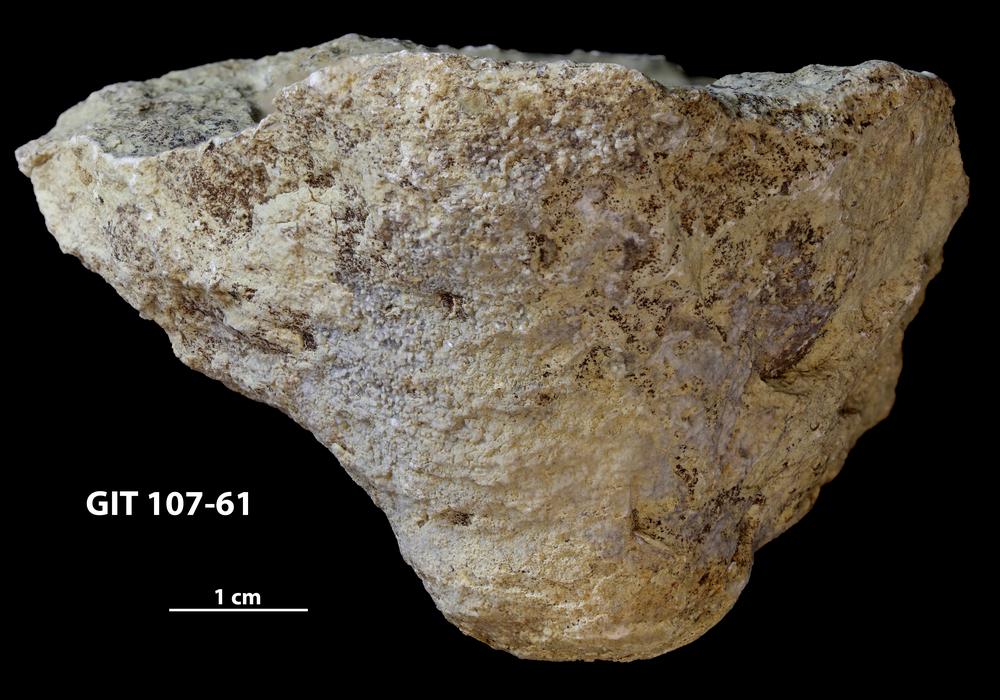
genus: Conichnus
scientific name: Conichnus
